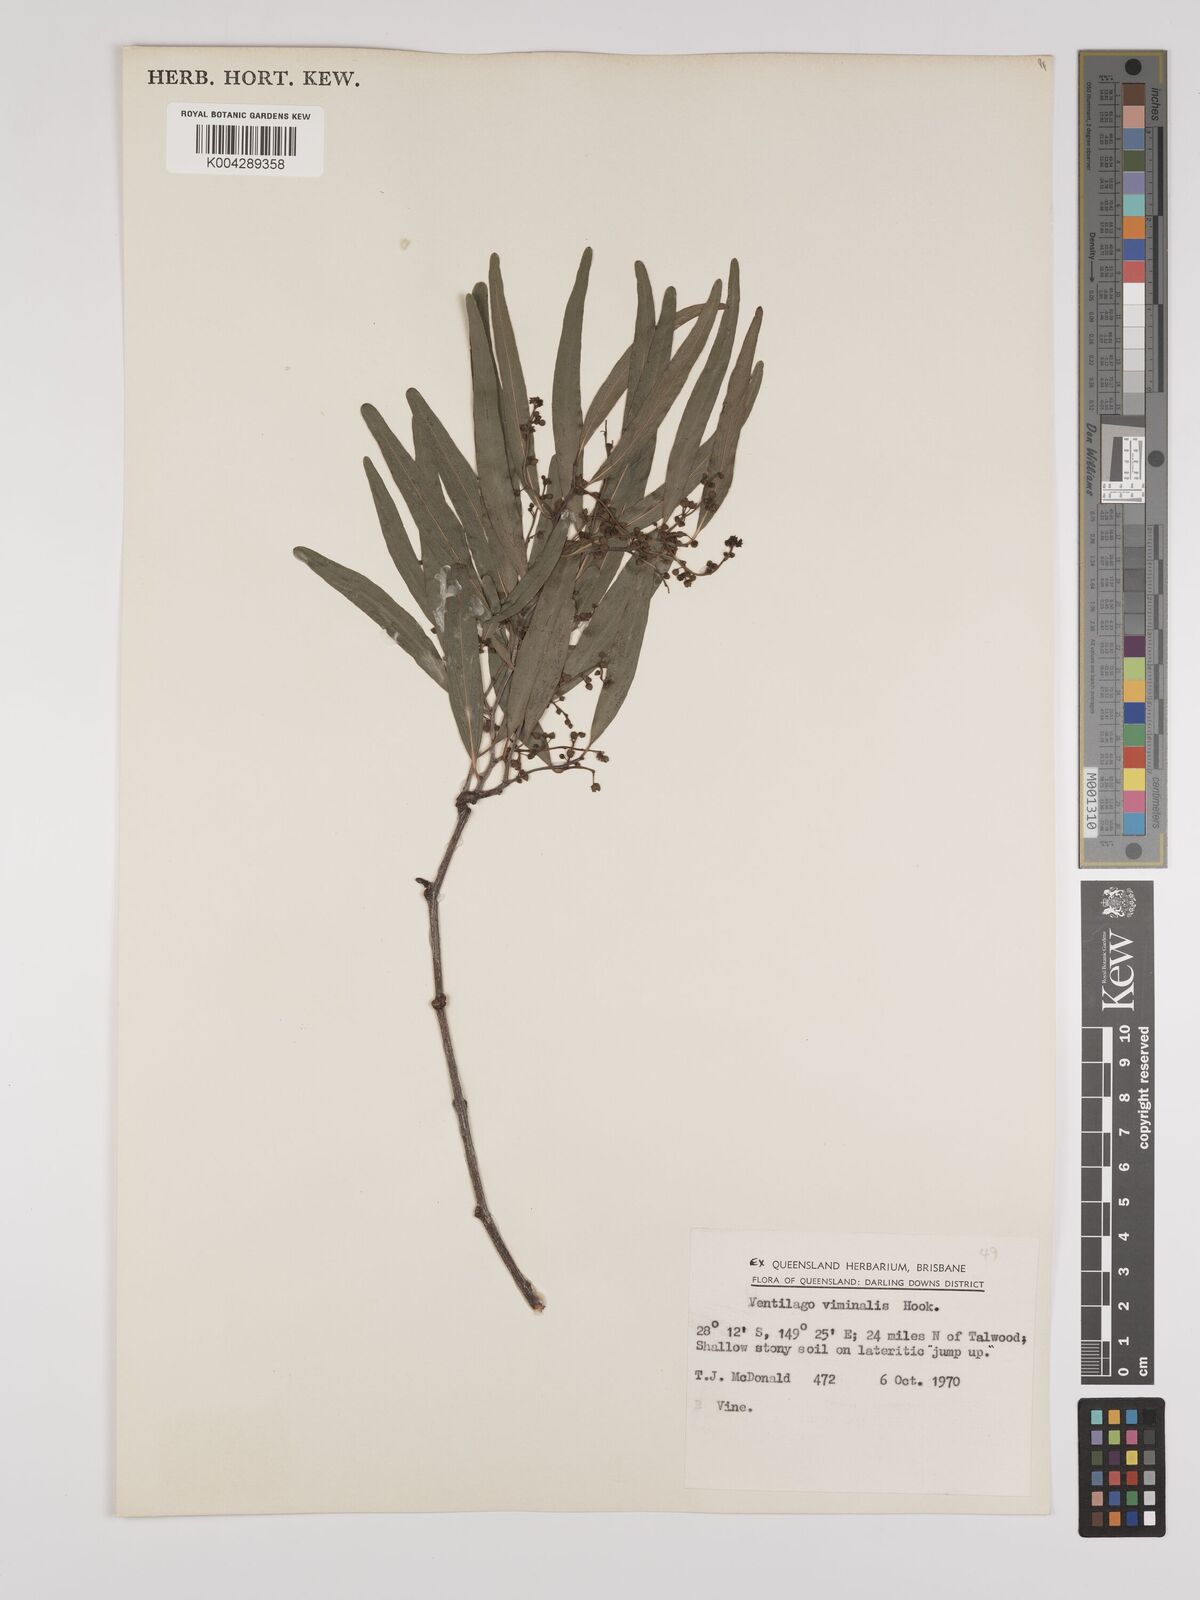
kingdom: Plantae
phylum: Tracheophyta
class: Magnoliopsida
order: Rosales
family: Rhamnaceae
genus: Ventilago
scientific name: Ventilago viminalis
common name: Medicine-bark
